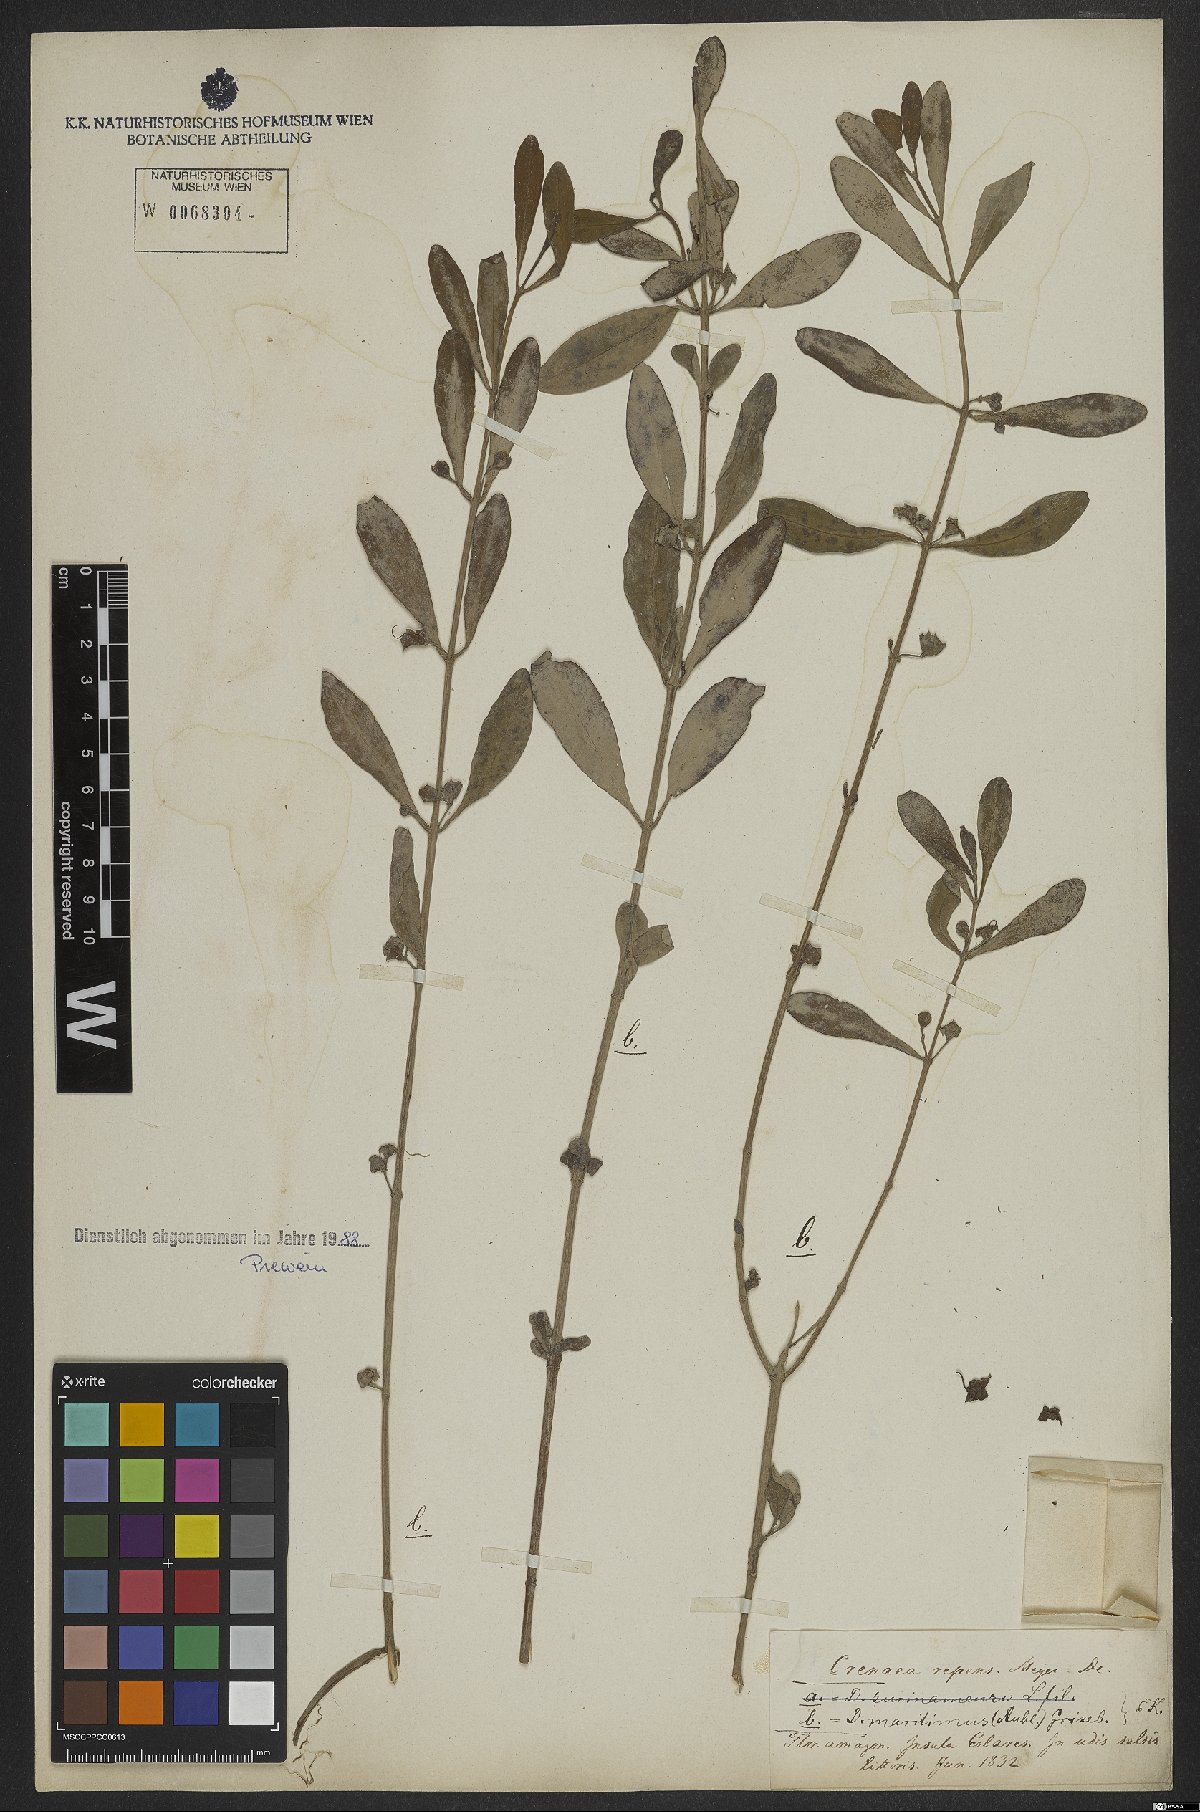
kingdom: Plantae
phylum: Tracheophyta
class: Magnoliopsida
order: Myrtales
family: Lythraceae
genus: Ammannia
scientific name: Ammannia maritima
